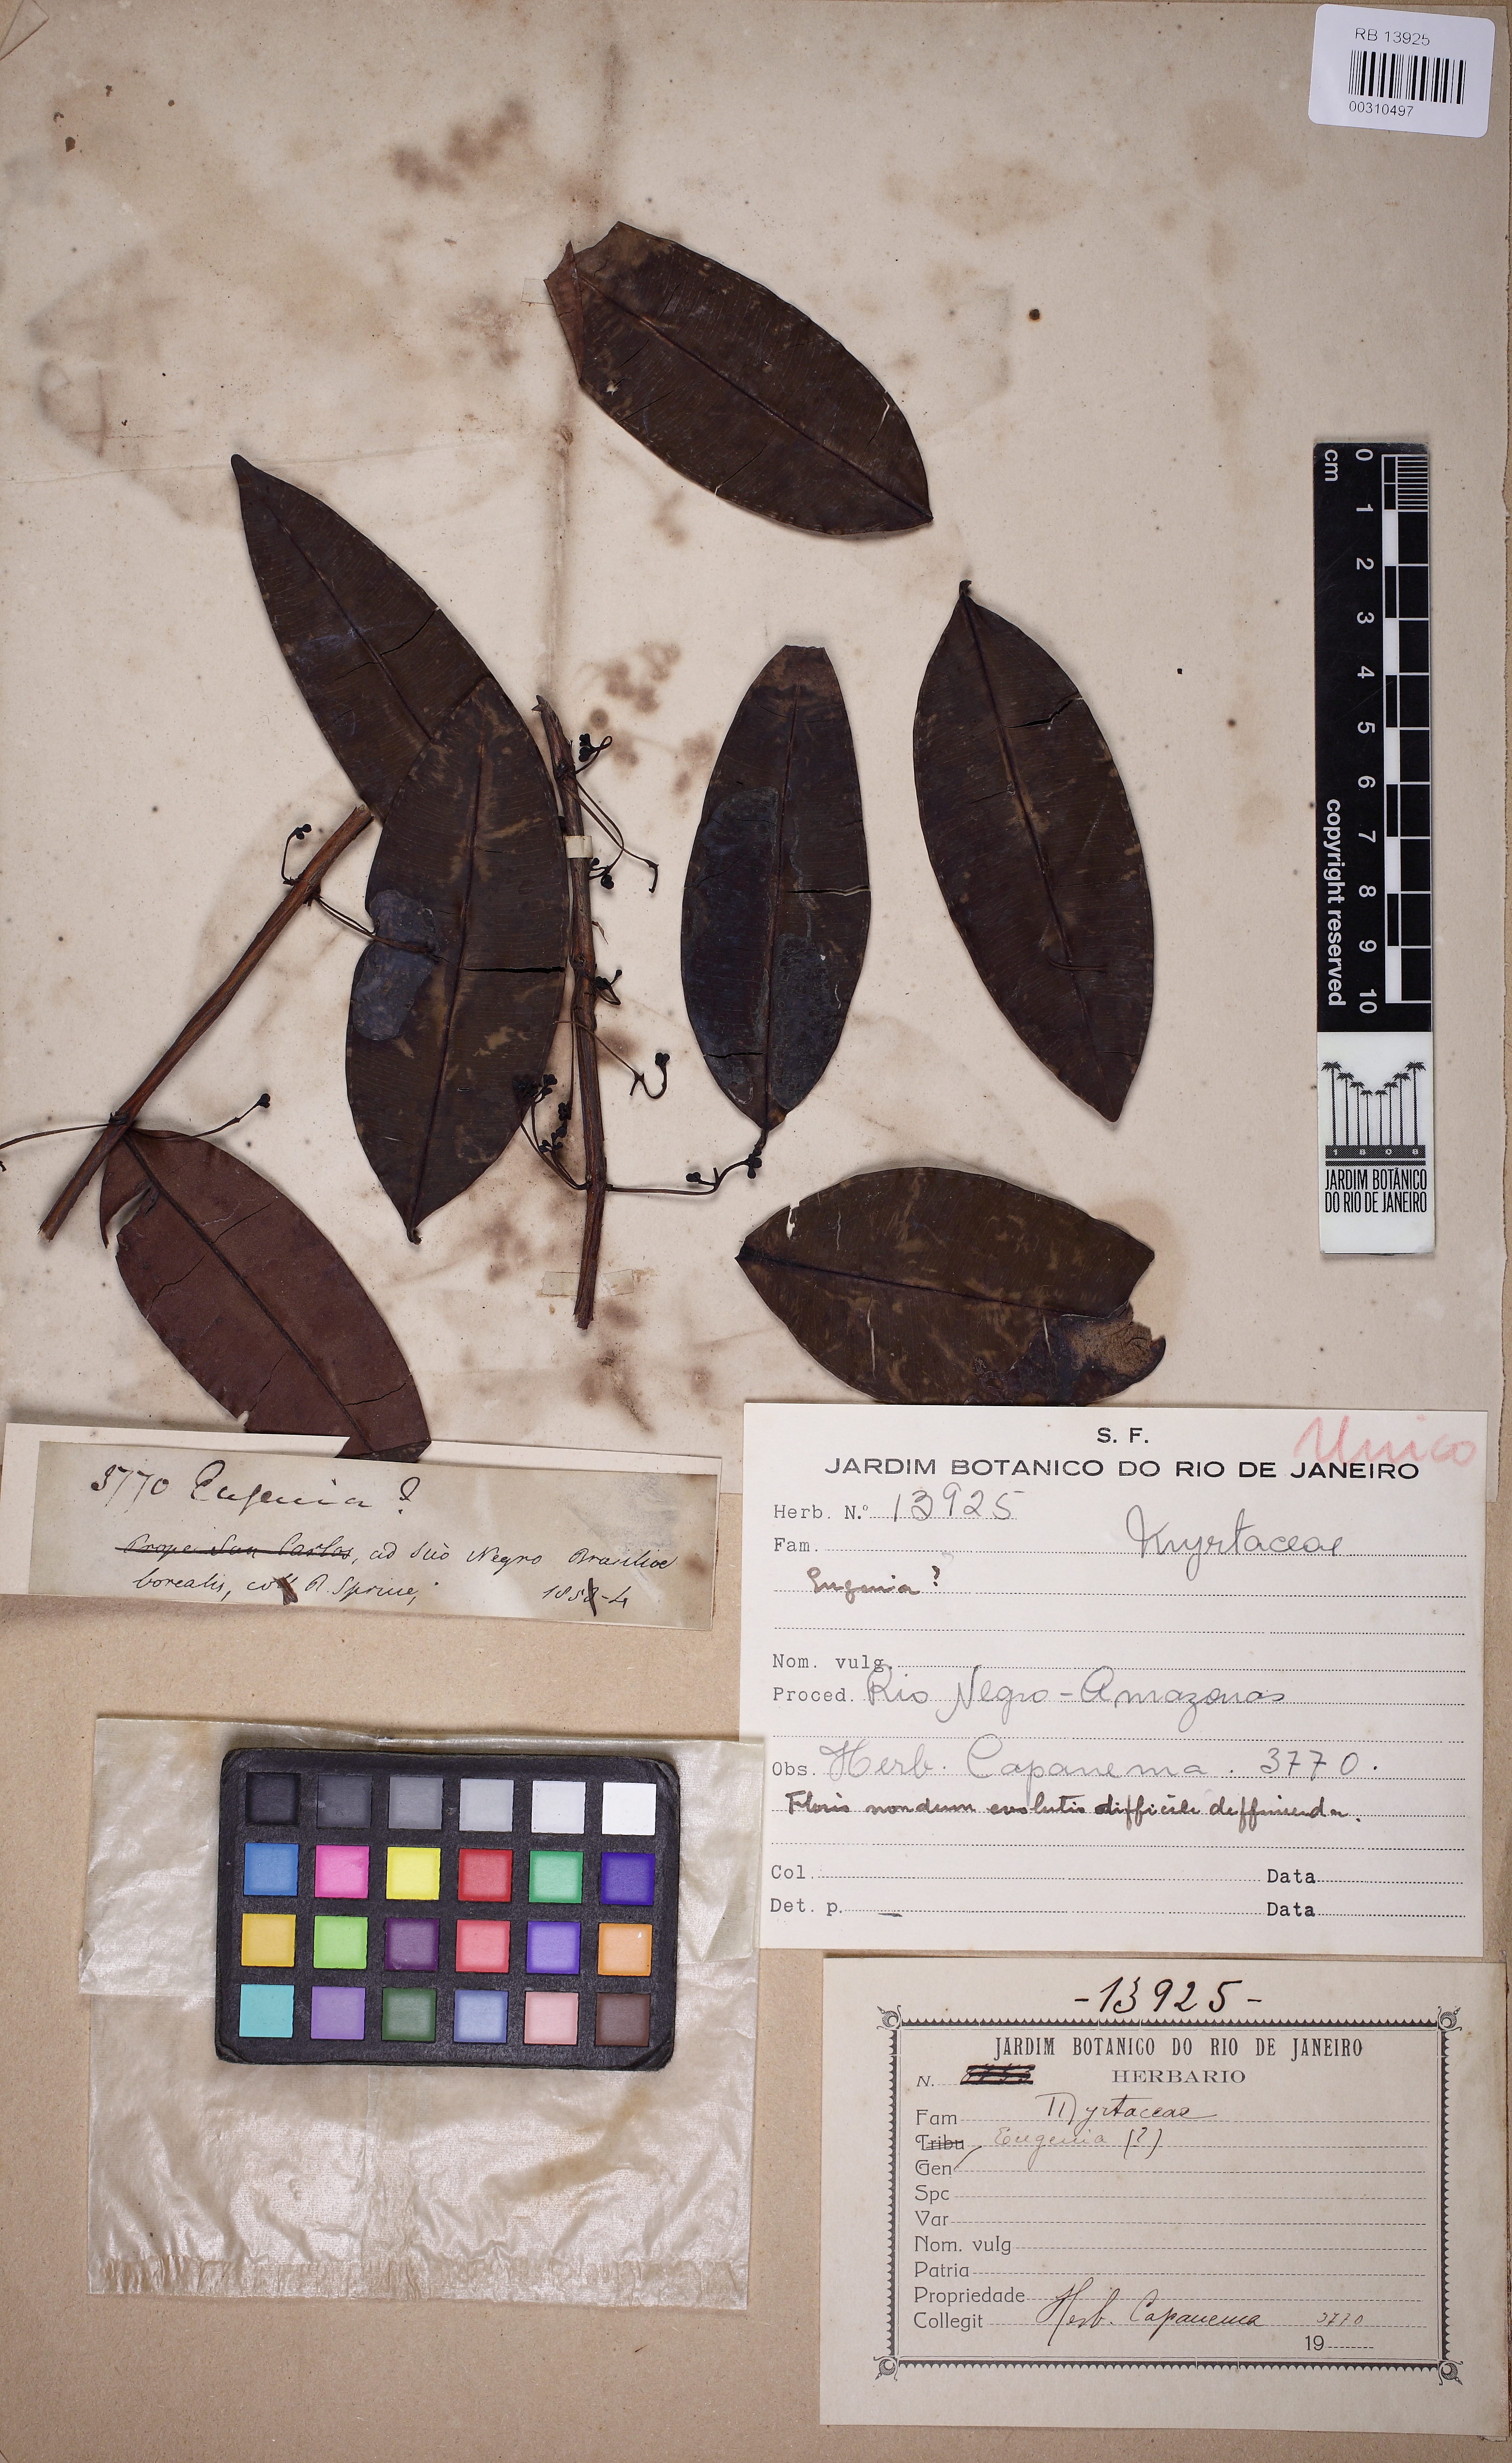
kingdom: Plantae
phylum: Tracheophyta
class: Magnoliopsida
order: Myrtales
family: Myrtaceae
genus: Myrcia
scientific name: Myrcia bipennis
